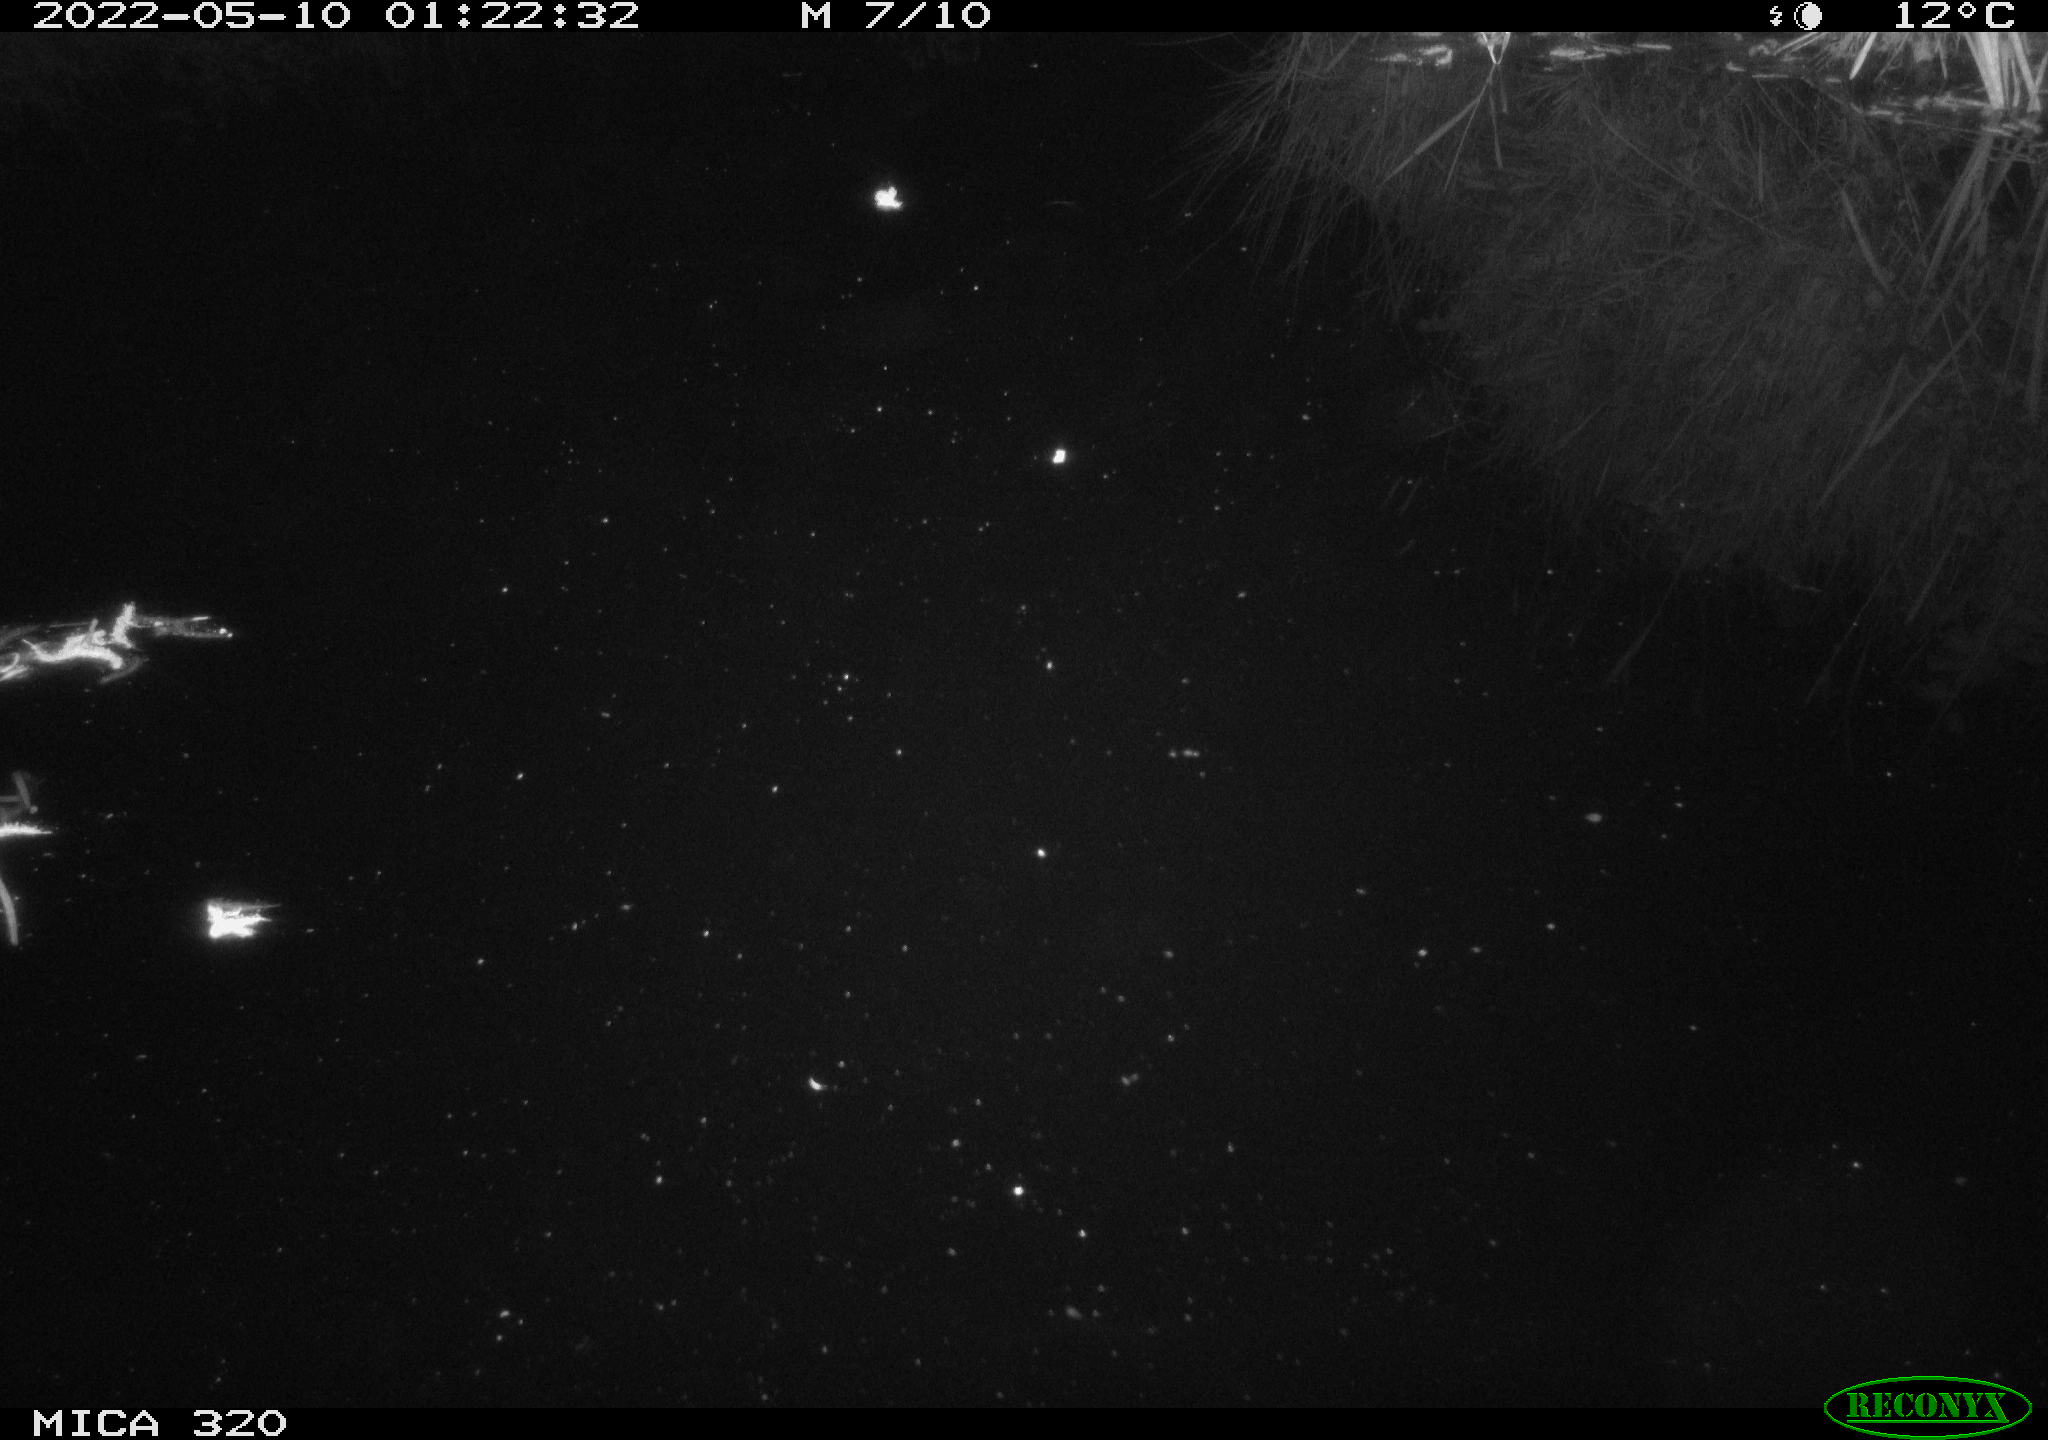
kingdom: Animalia
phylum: Chordata
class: Mammalia
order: Rodentia
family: Muridae
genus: Rattus
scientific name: Rattus norvegicus
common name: Brown rat
